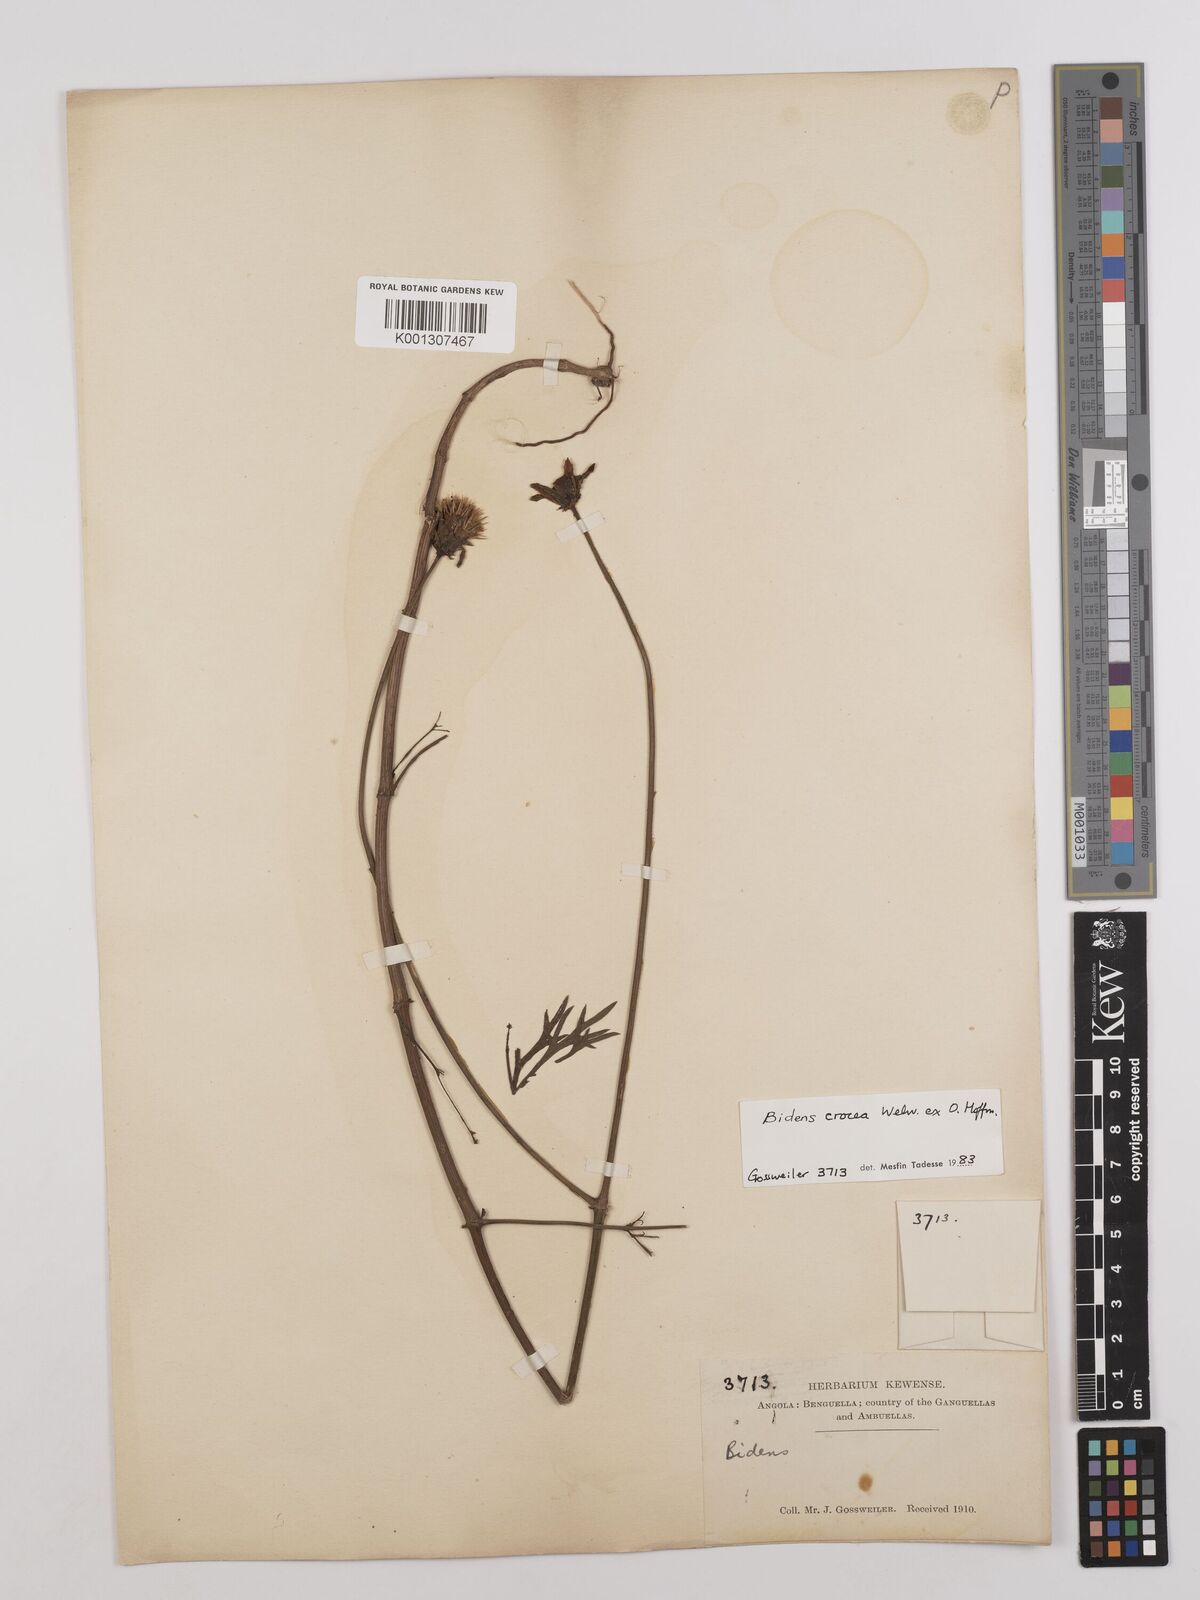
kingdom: Plantae
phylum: Tracheophyta
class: Magnoliopsida
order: Asterales
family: Asteraceae
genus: Bidens
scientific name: Bidens crocea
